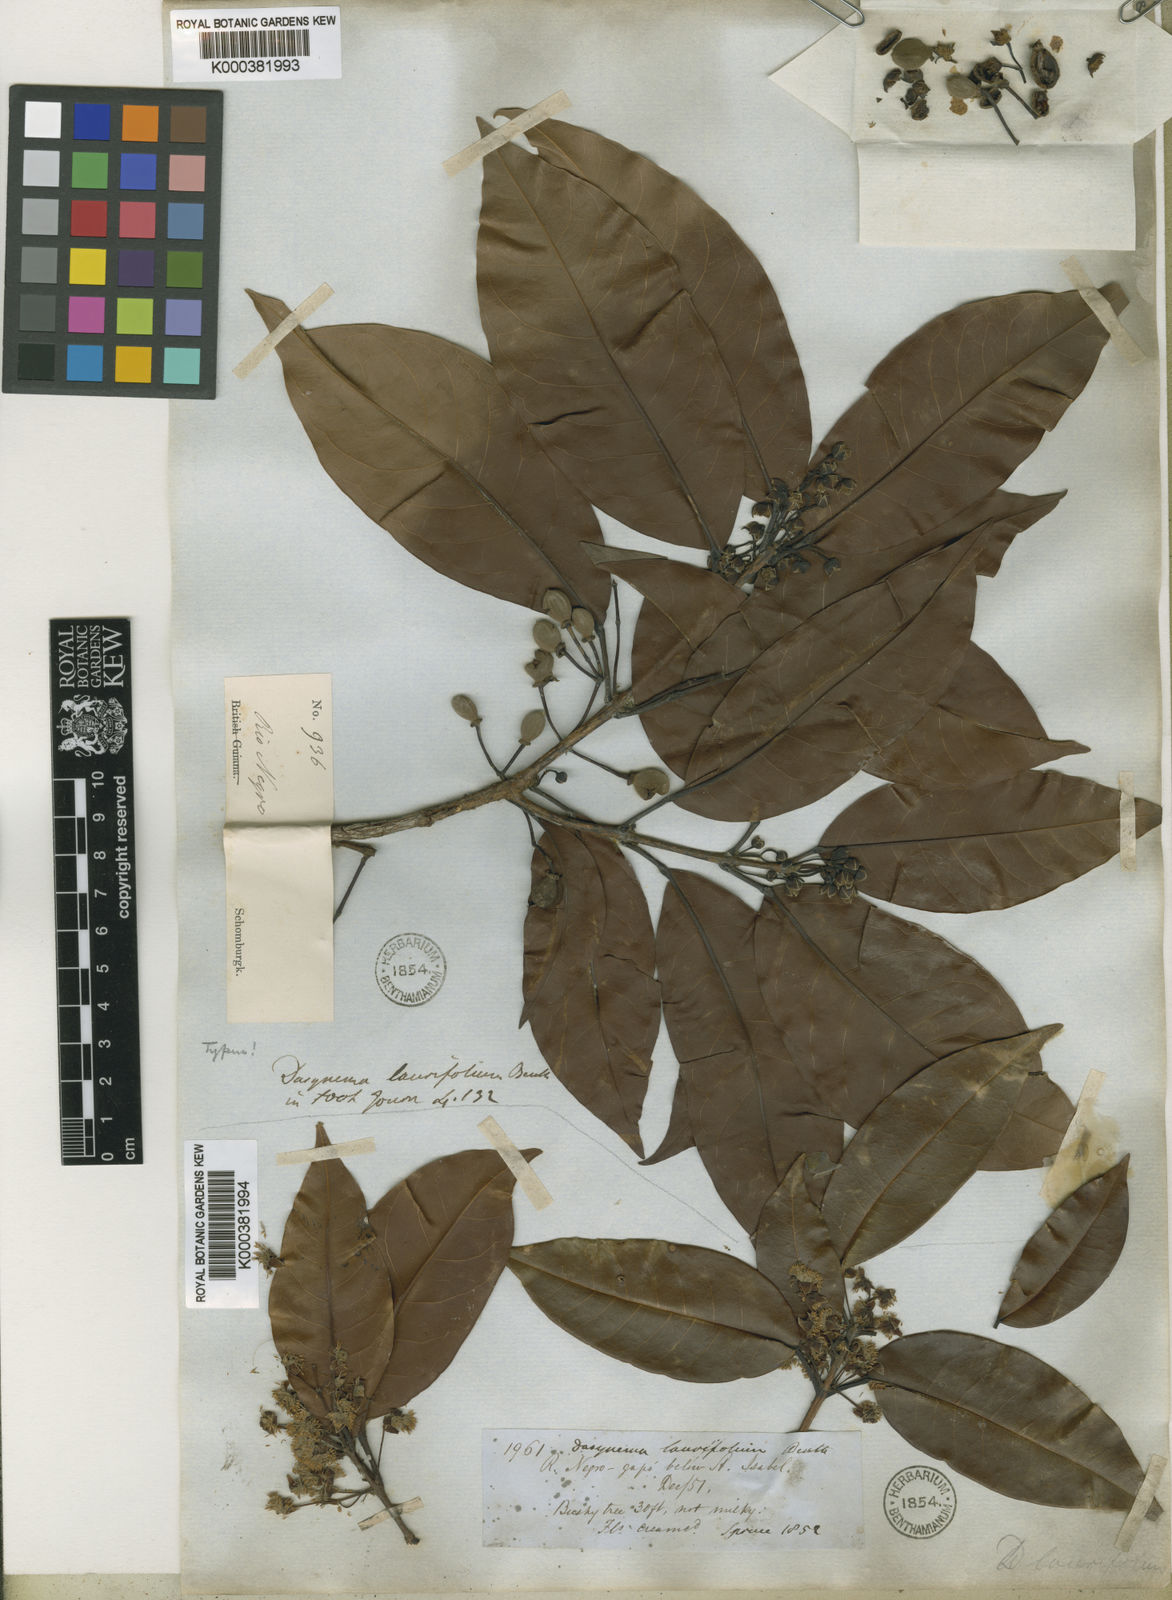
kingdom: Plantae
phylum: Tracheophyta
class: Magnoliopsida
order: Oxalidales
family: Elaeocarpaceae
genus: Sloanea
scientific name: Sloanea laurifolia
